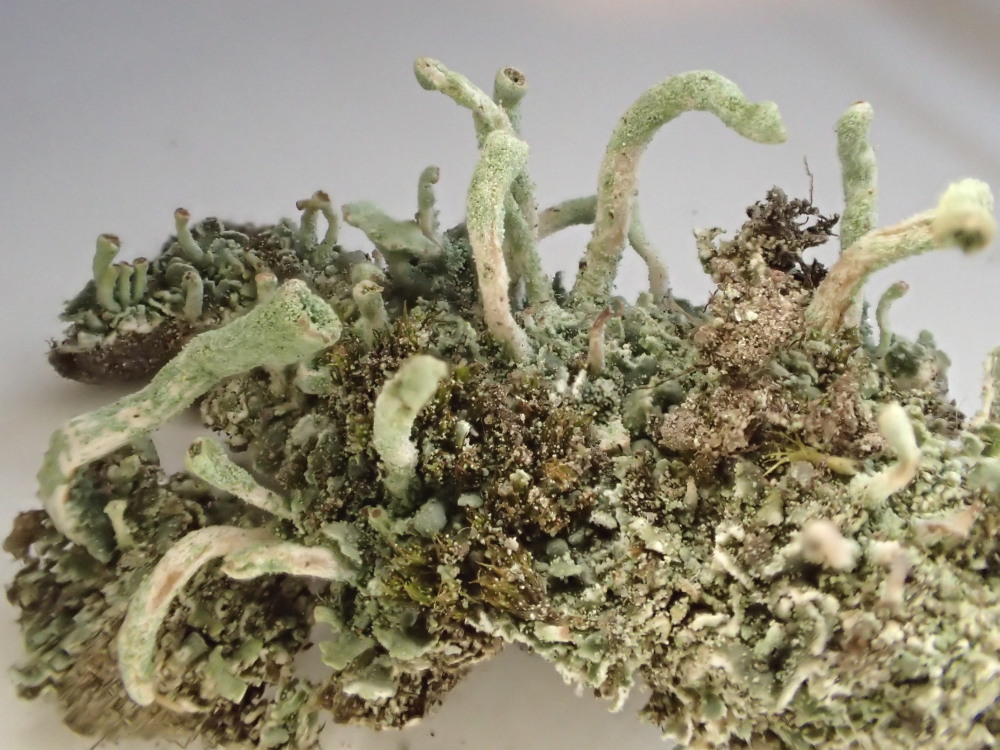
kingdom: Fungi
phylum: Ascomycota
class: Lecanoromycetes
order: Lecanorales
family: Cladoniaceae
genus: Cladonia
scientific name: Cladonia fimbriata
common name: bleggrøn bægerlav
